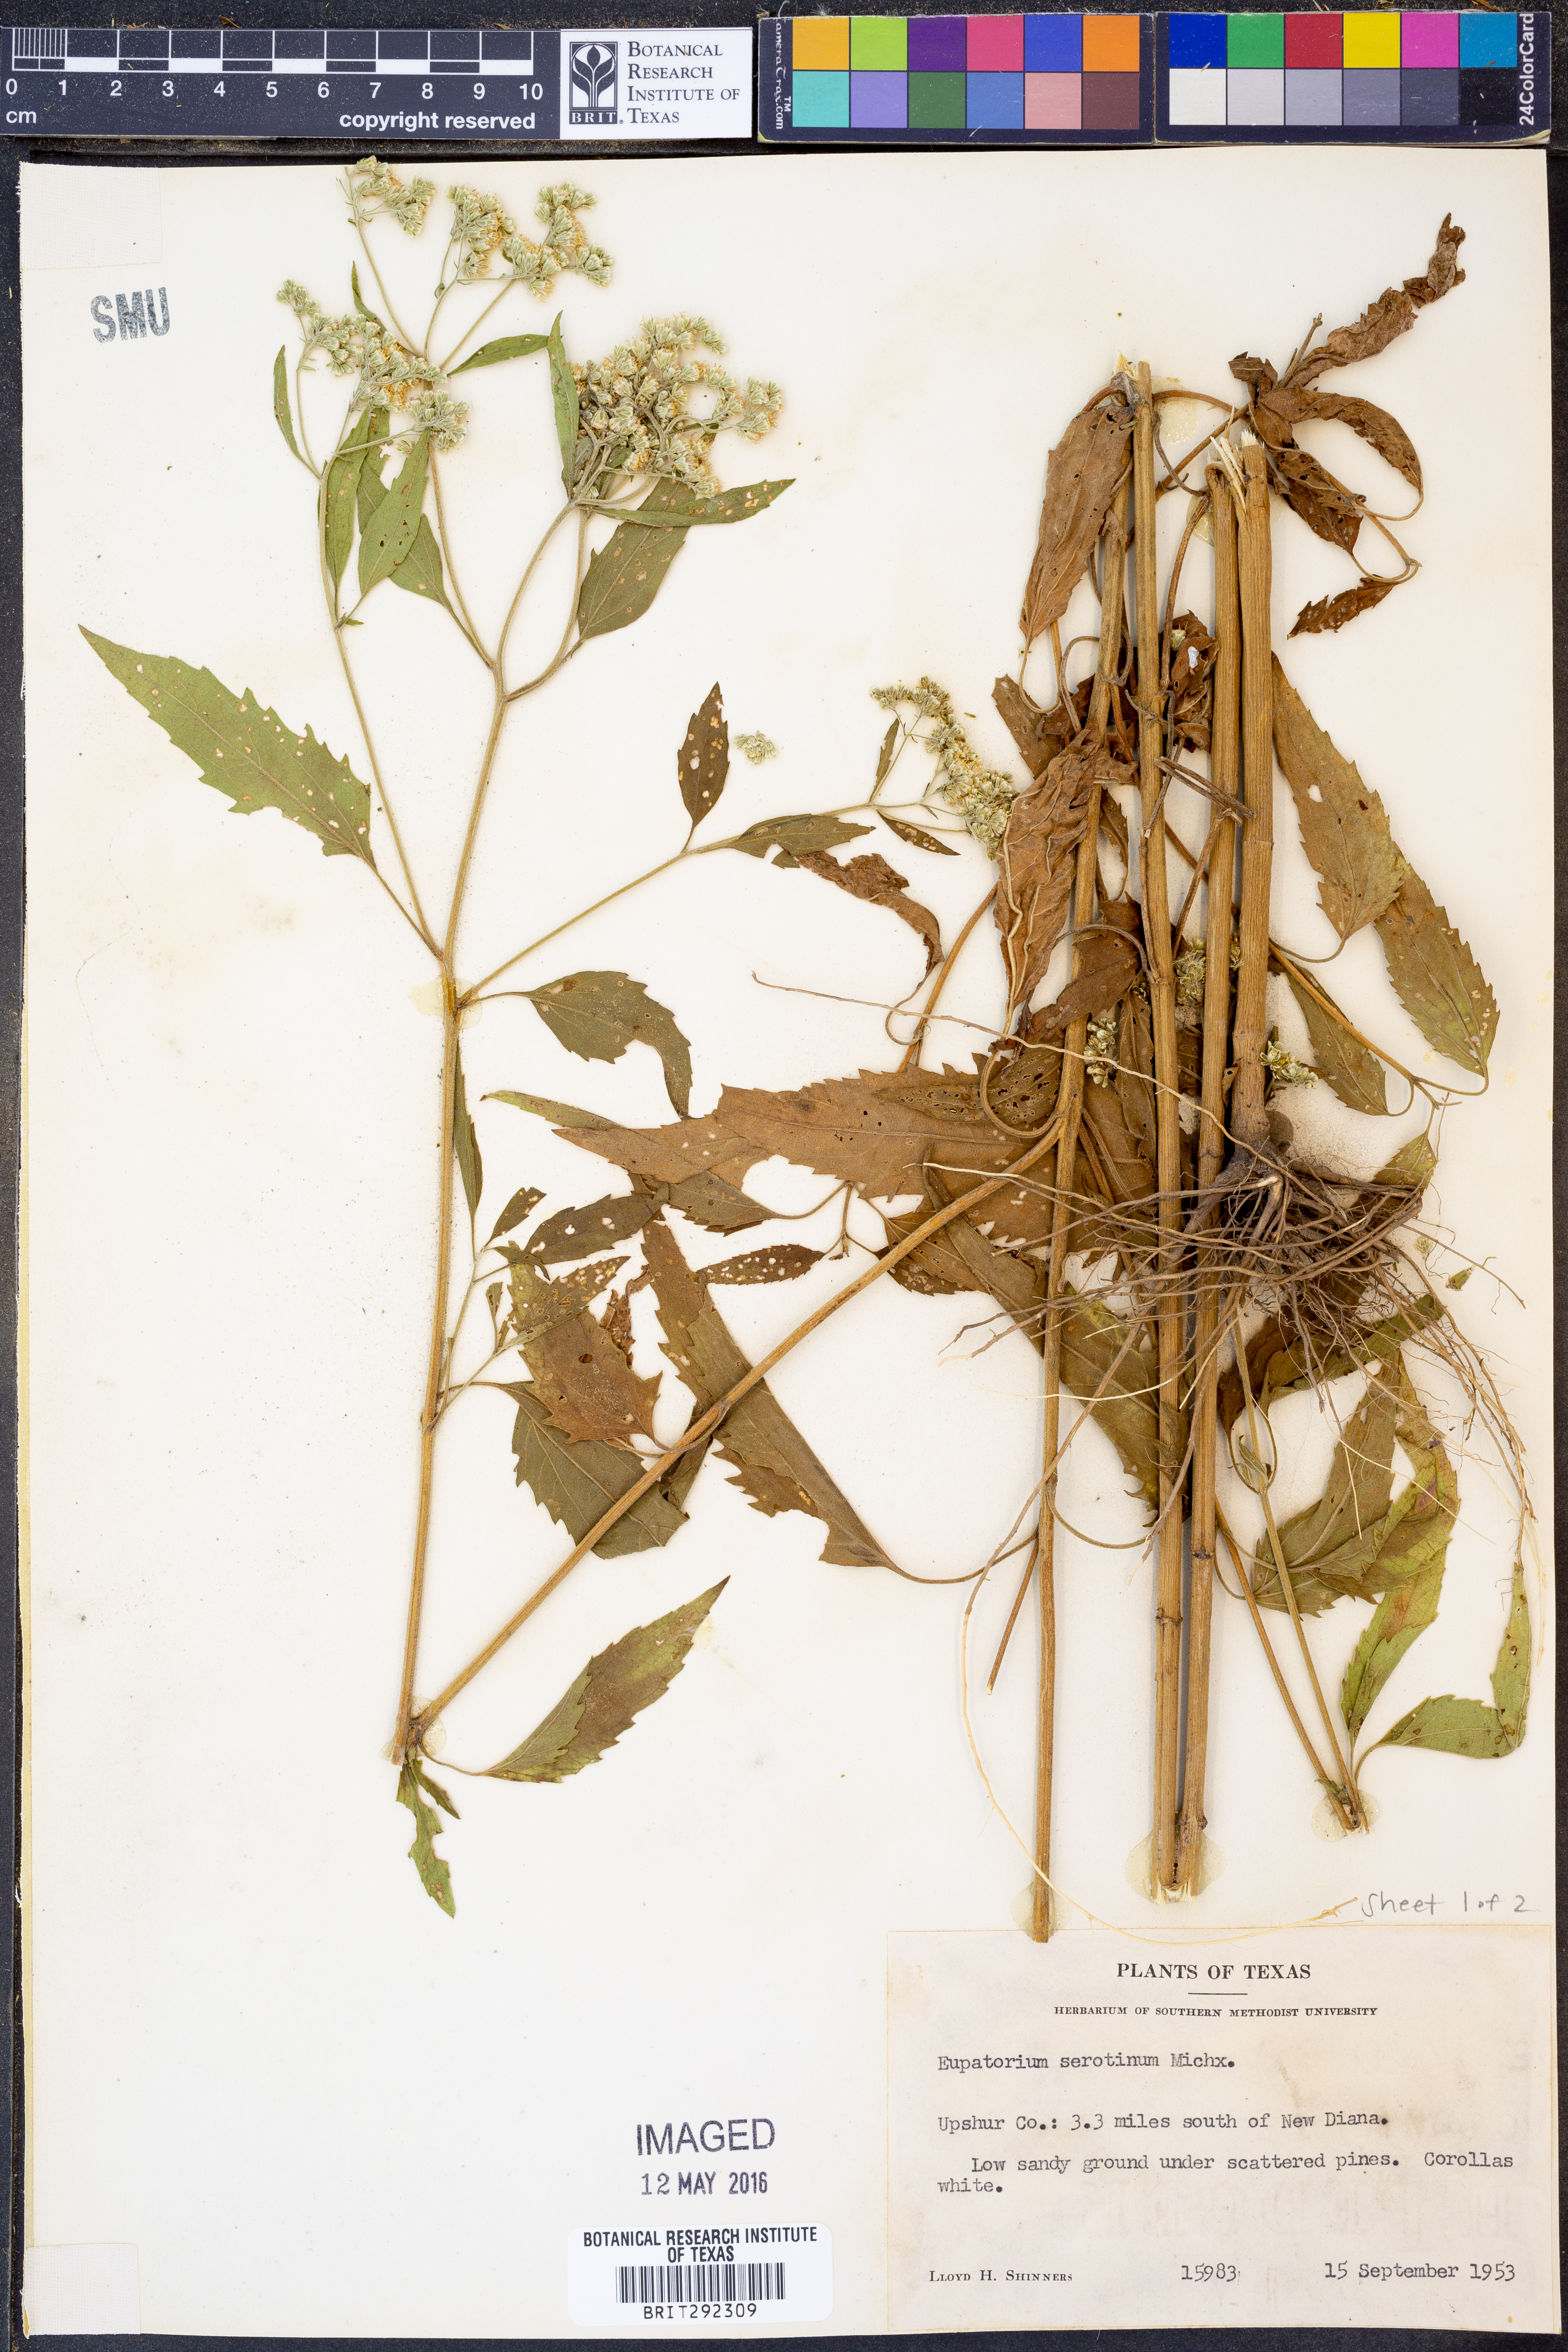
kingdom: Plantae
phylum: Tracheophyta
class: Magnoliopsida
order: Asterales
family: Asteraceae
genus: Eupatorium
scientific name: Eupatorium serotinum
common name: Late boneset
